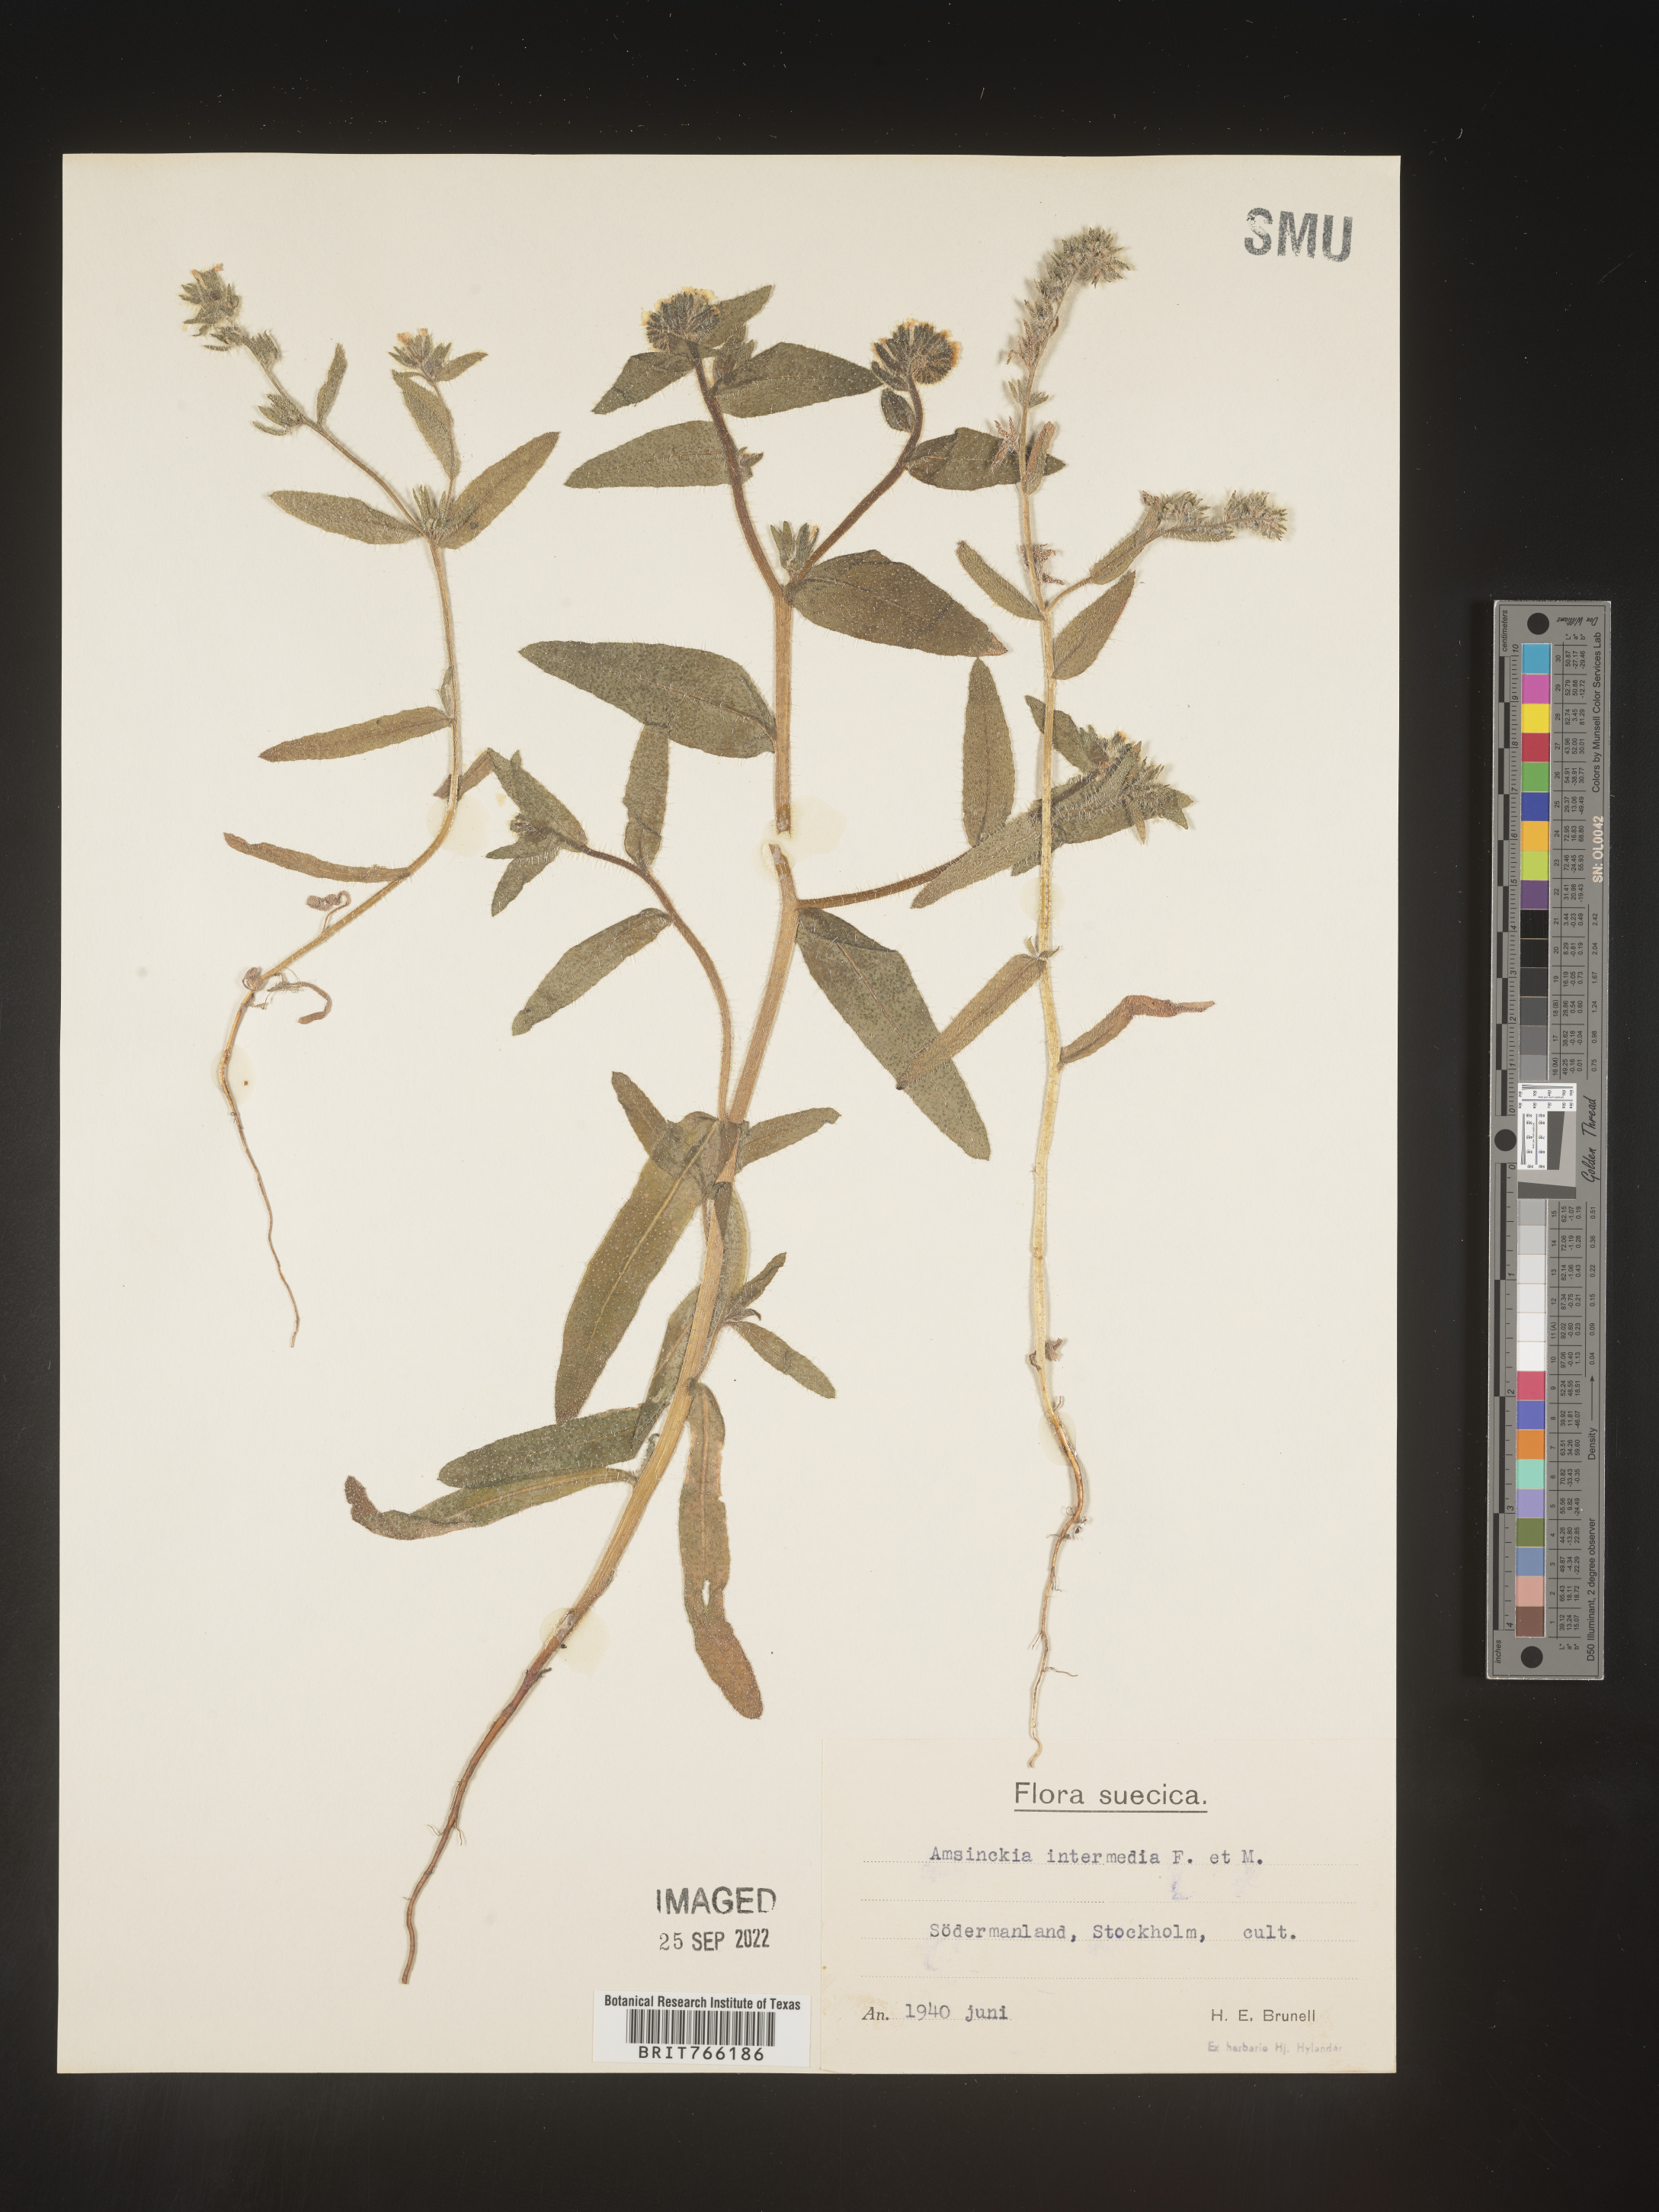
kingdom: Plantae
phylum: Tracheophyta
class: Magnoliopsida
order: Boraginales
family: Boraginaceae
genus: Amsinckia
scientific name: Amsinckia
